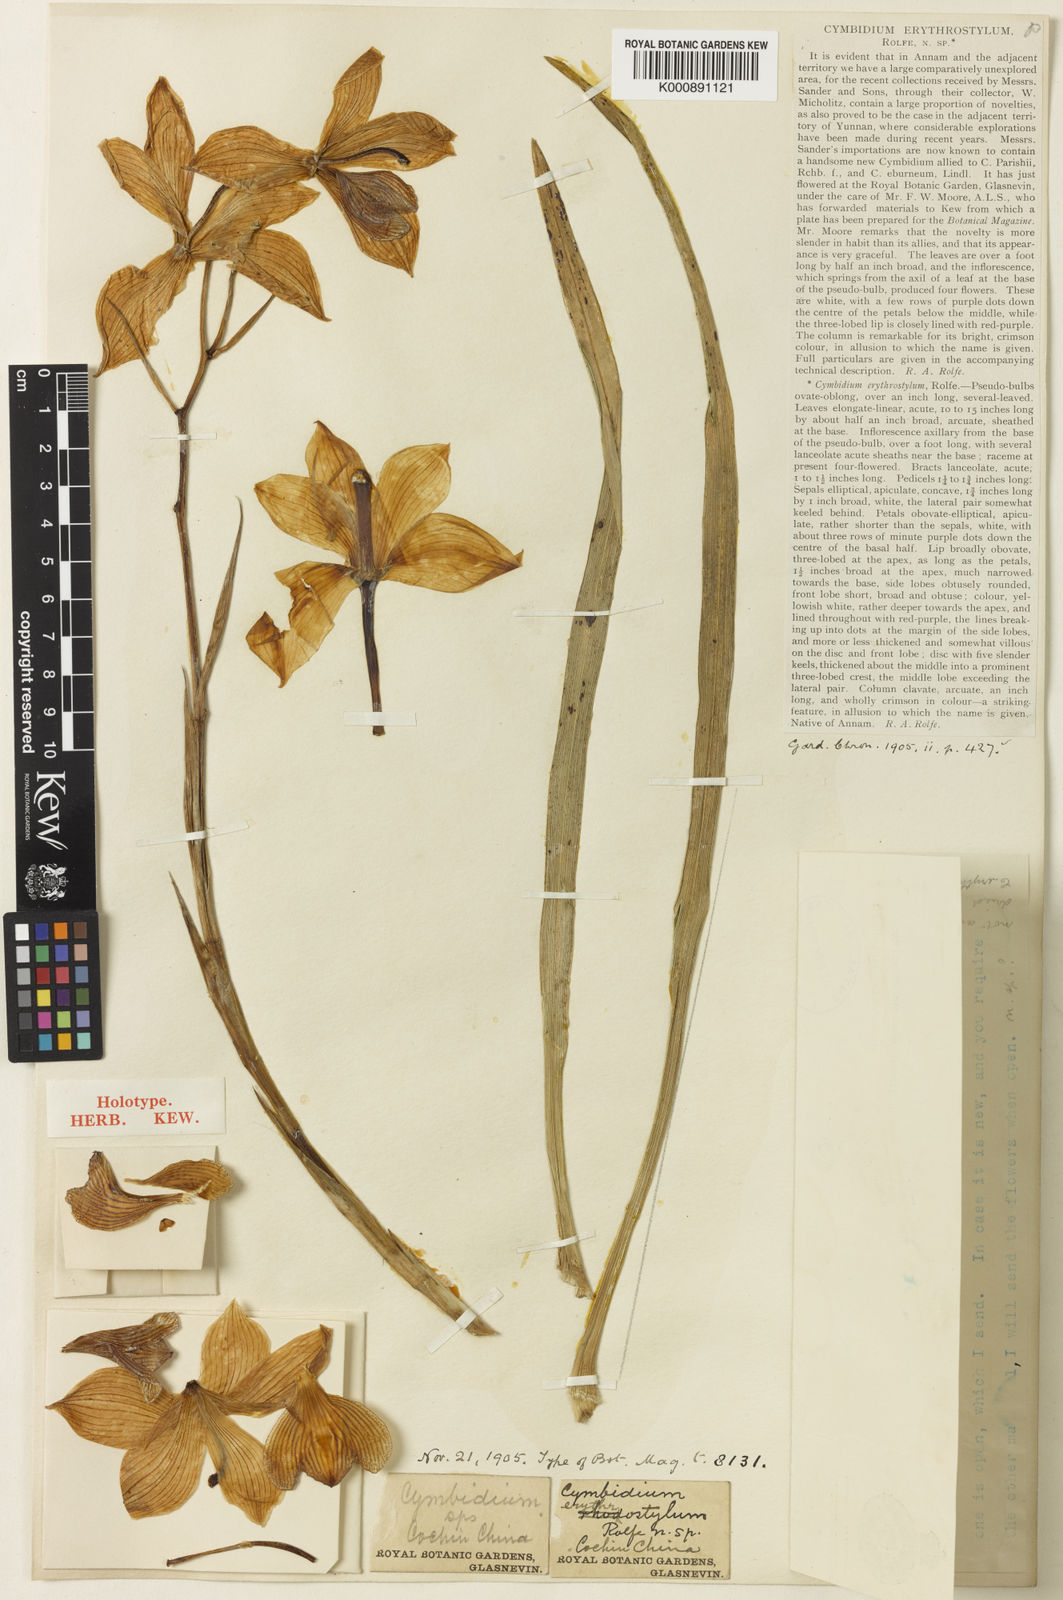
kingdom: Plantae
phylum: Tracheophyta
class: Liliopsida
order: Asparagales
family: Orchidaceae
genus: Cymbidium
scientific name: Cymbidium erythrostylum
